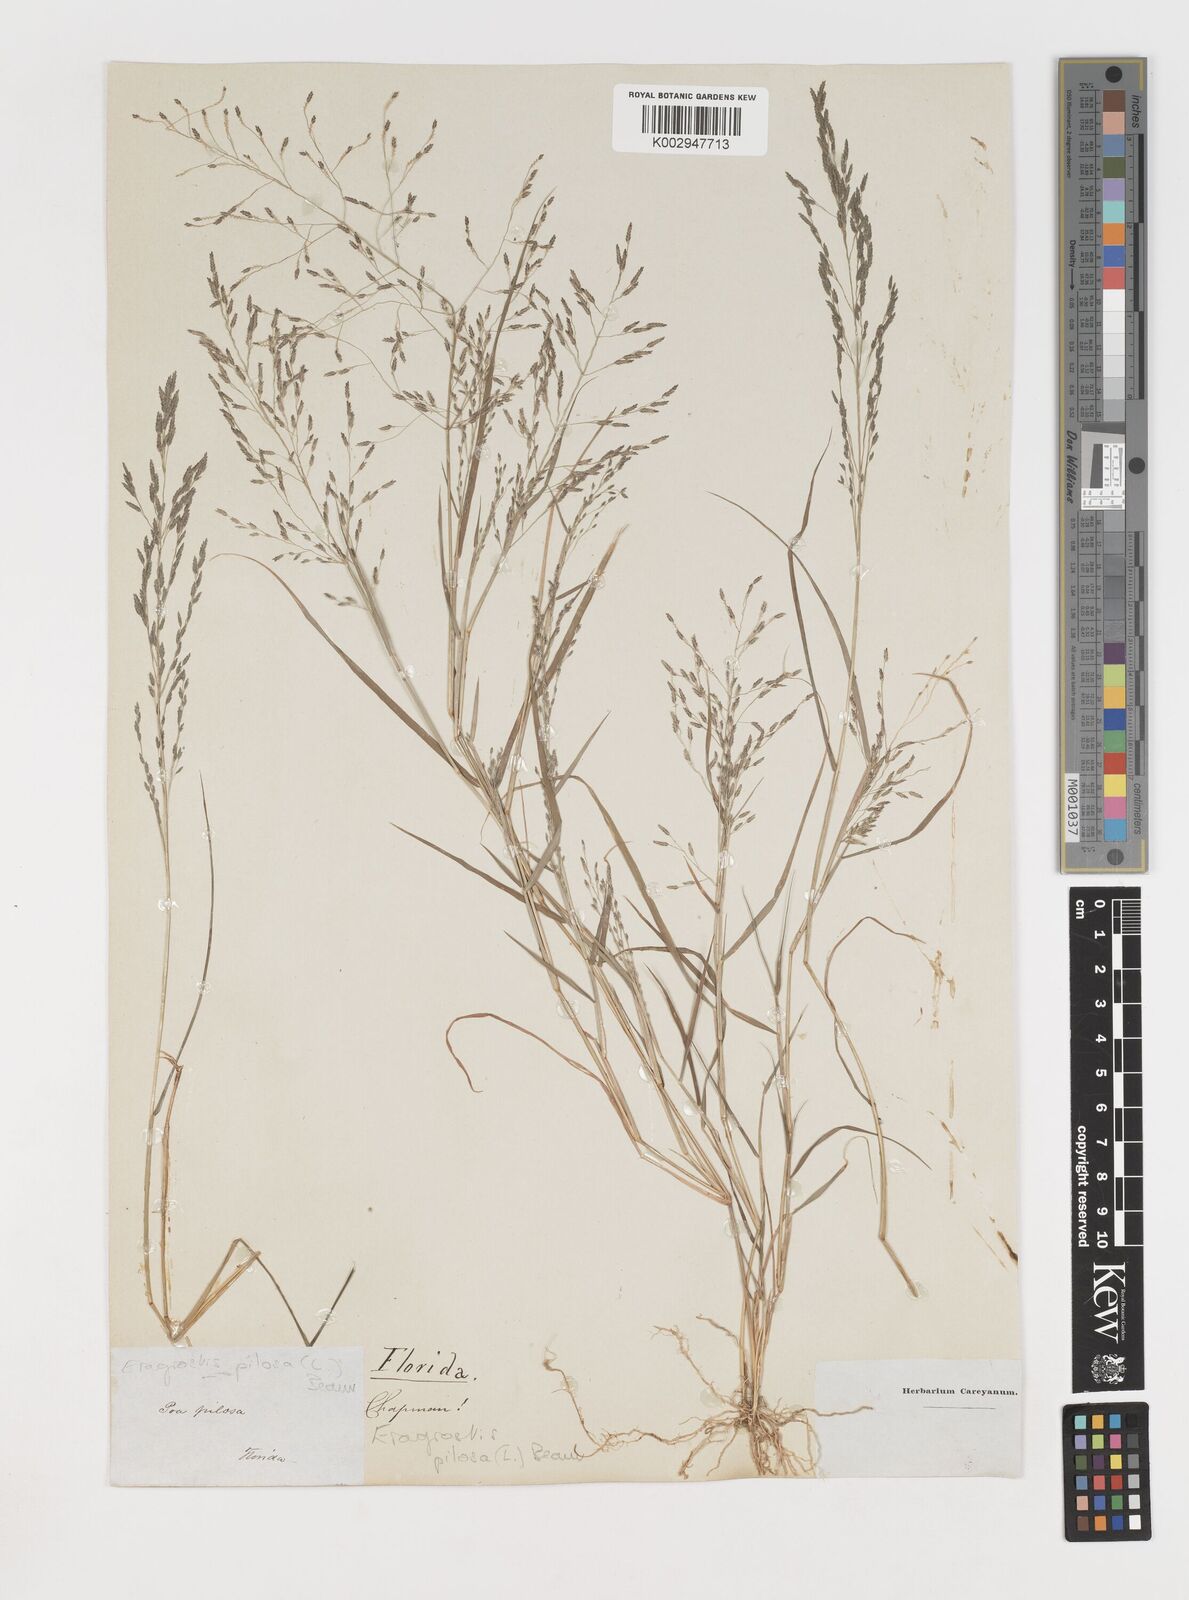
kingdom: Plantae
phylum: Tracheophyta
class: Liliopsida
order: Poales
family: Poaceae
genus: Eragrostis
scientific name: Eragrostis pilosa
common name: Indian lovegrass
